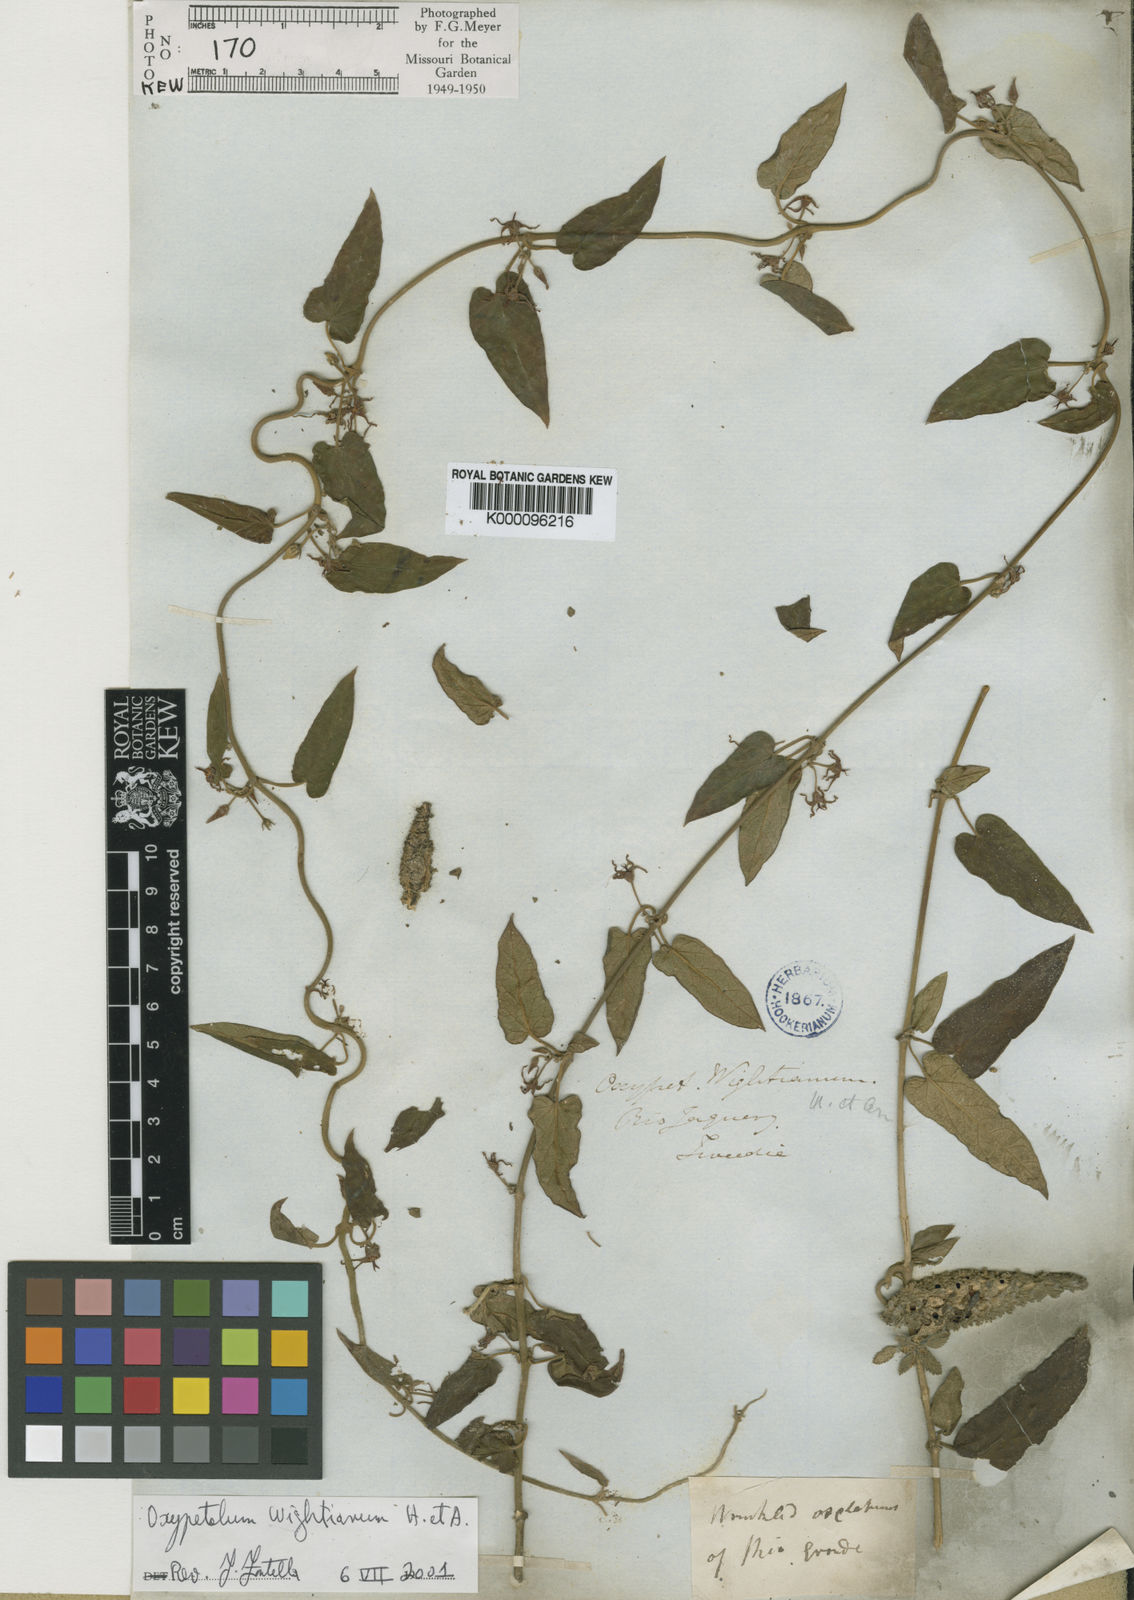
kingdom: Plantae
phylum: Tracheophyta
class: Magnoliopsida
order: Gentianales
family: Apocynaceae
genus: Oxypetalum
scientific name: Oxypetalum wightianum
